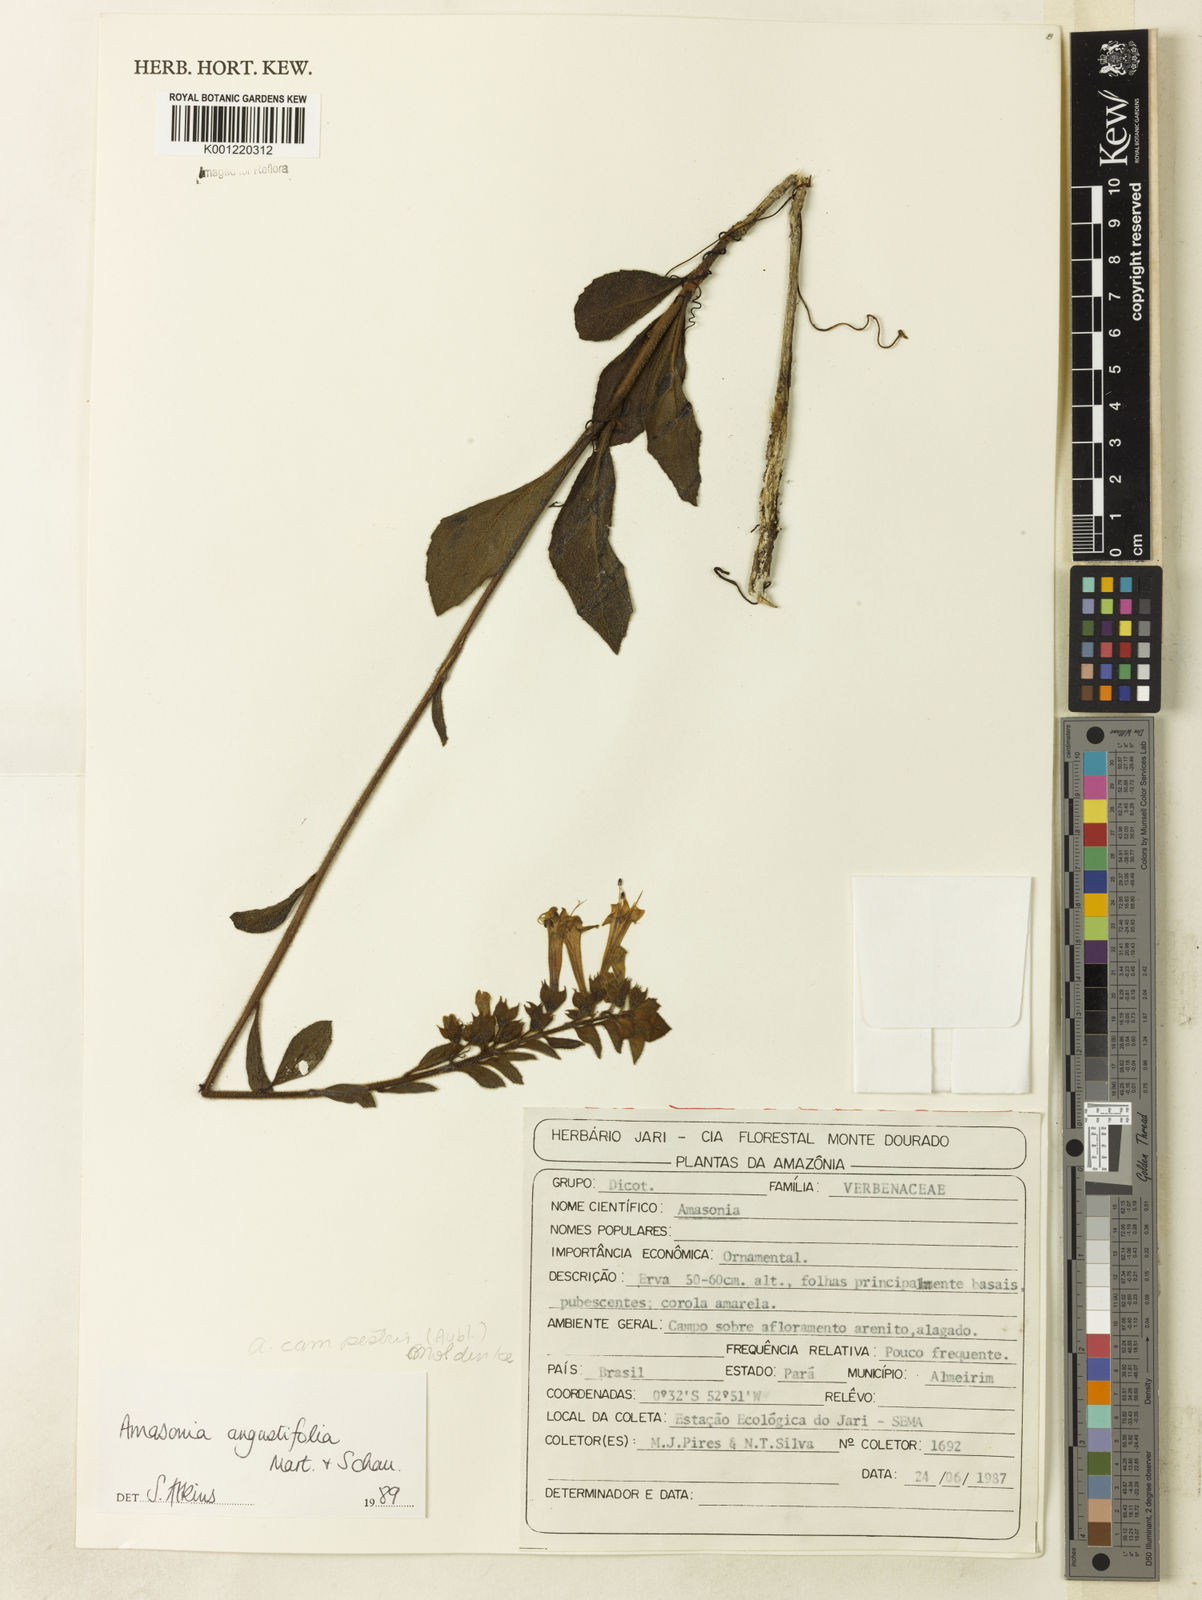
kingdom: Plantae
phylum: Tracheophyta
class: Magnoliopsida
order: Lamiales
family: Lamiaceae
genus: Amasonia
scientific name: Amasonia campestris
